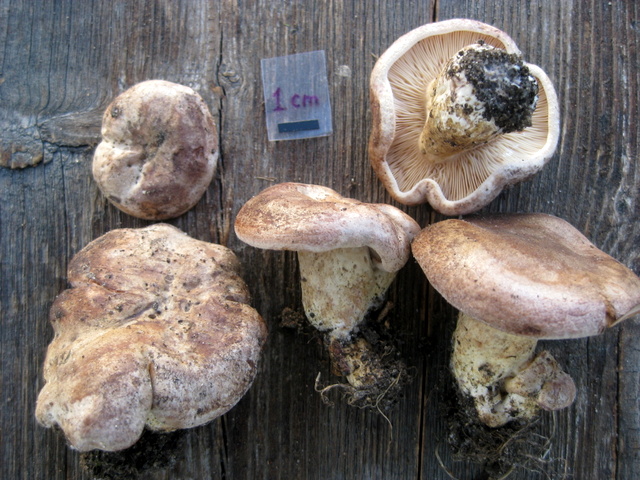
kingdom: Fungi
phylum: Basidiomycota
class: Agaricomycetes
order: Russulales
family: Russulaceae
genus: Lactarius
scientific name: Lactarius violascens
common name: gråviolet mælkehat
